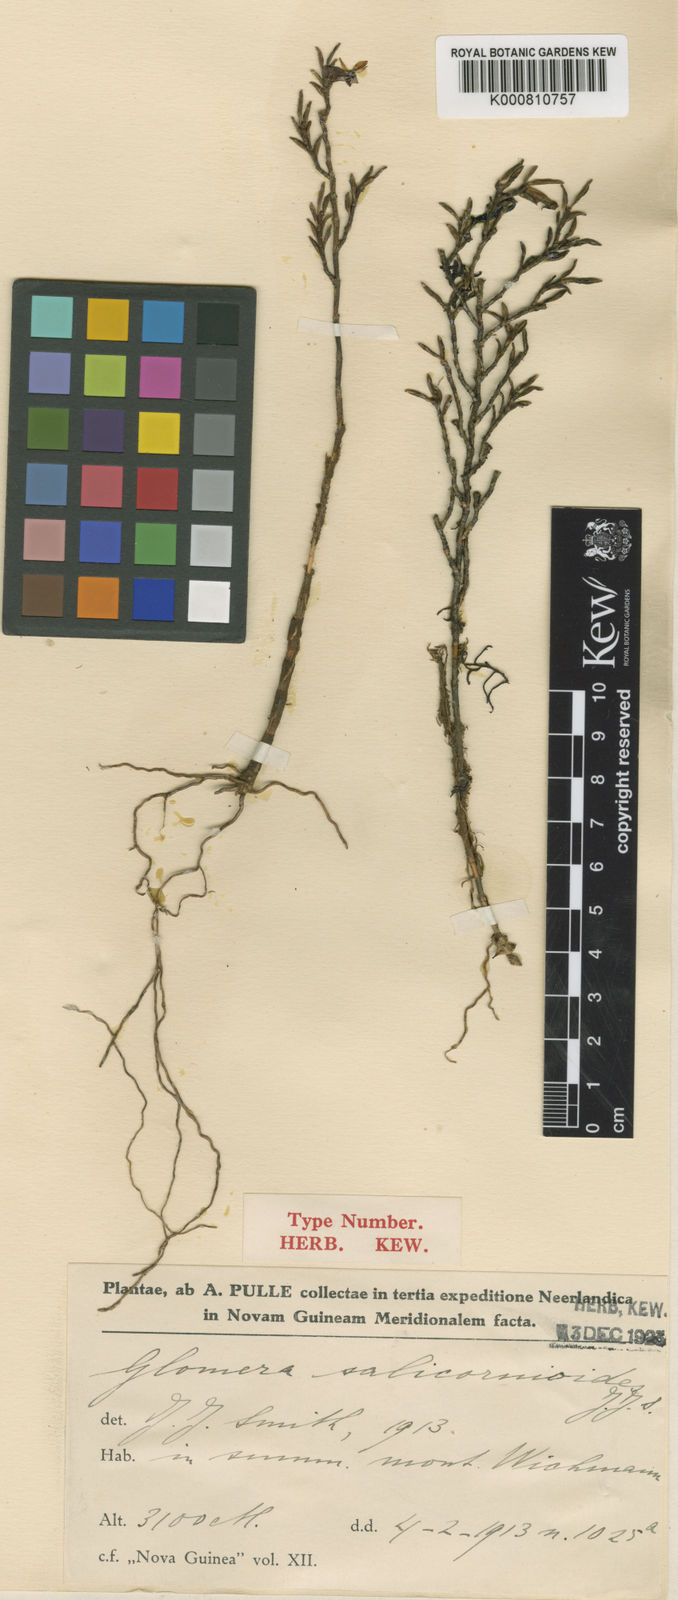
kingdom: Plantae
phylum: Tracheophyta
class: Liliopsida
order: Asparagales
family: Orchidaceae
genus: Glomera
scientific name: Glomera salicornioides
